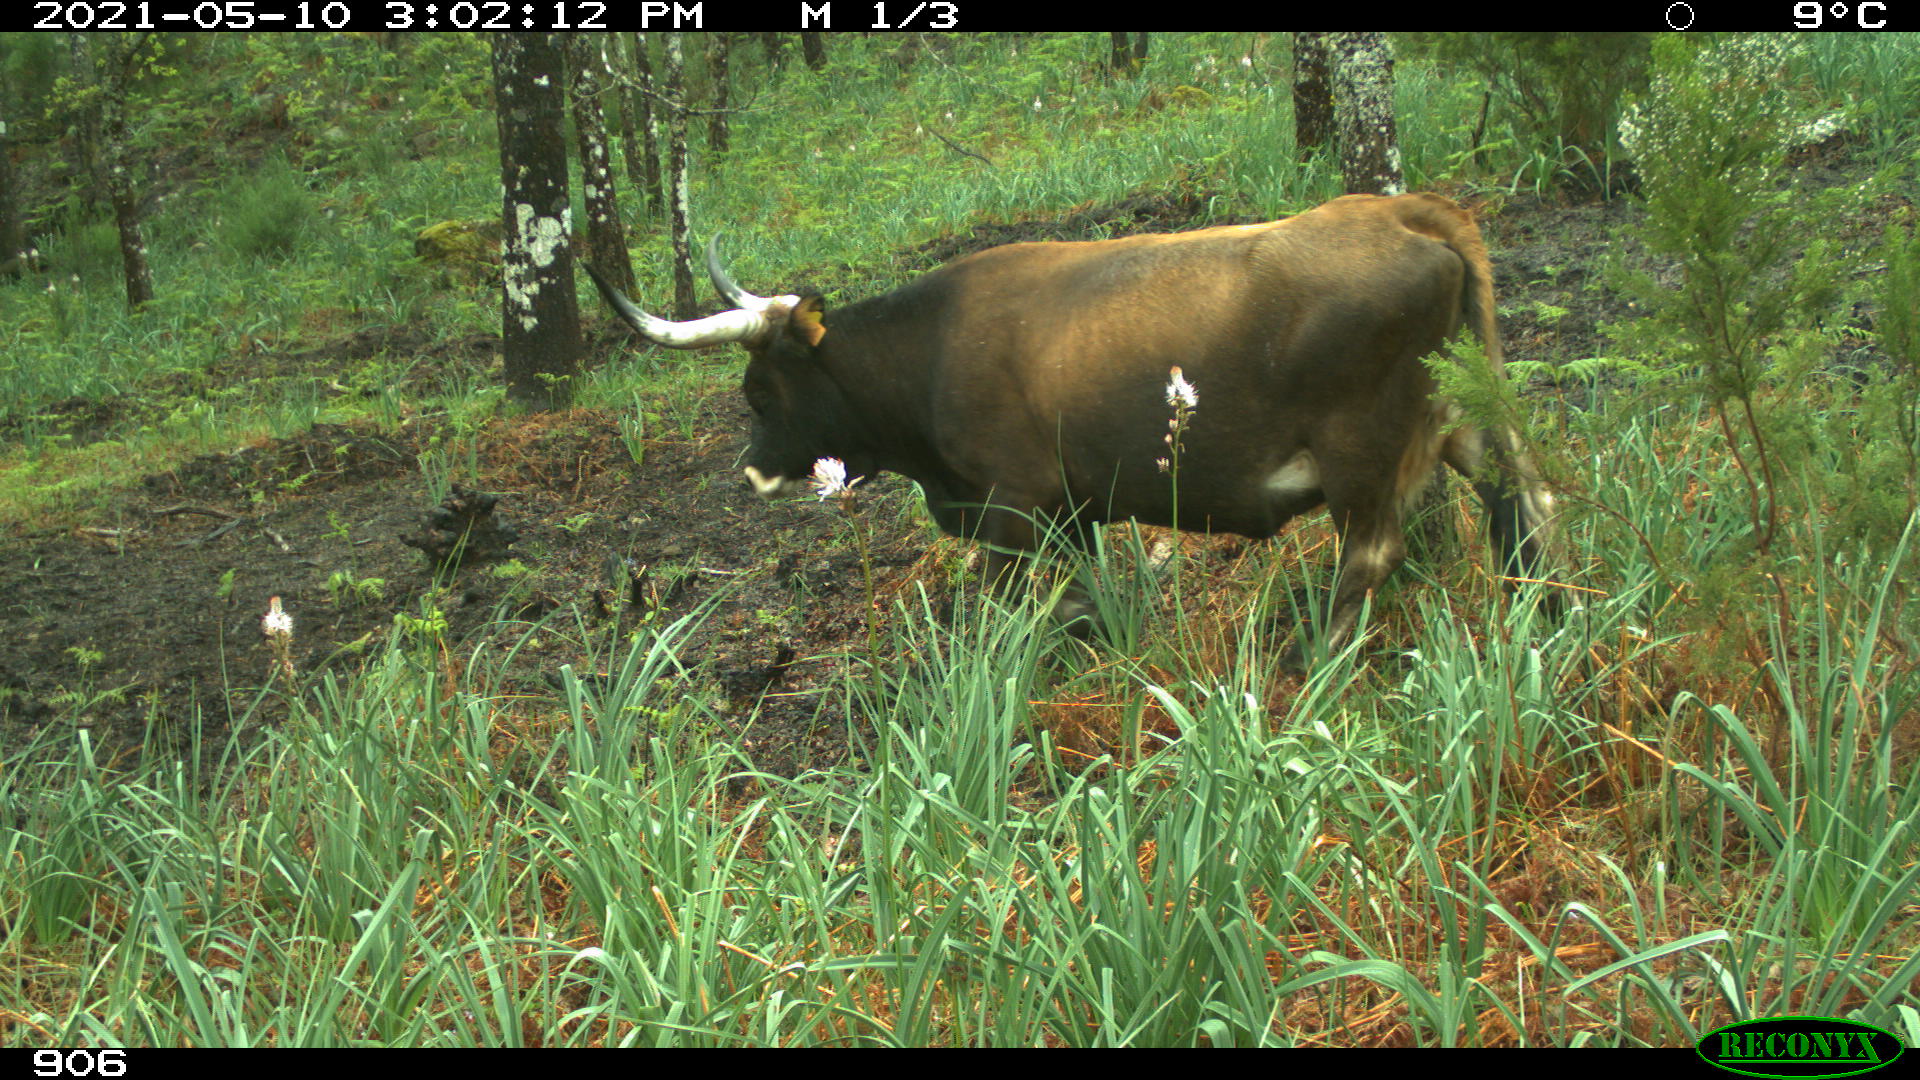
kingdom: Animalia
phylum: Chordata
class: Mammalia
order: Artiodactyla
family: Bovidae
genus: Bos
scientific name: Bos taurus
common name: Domesticated cattle
